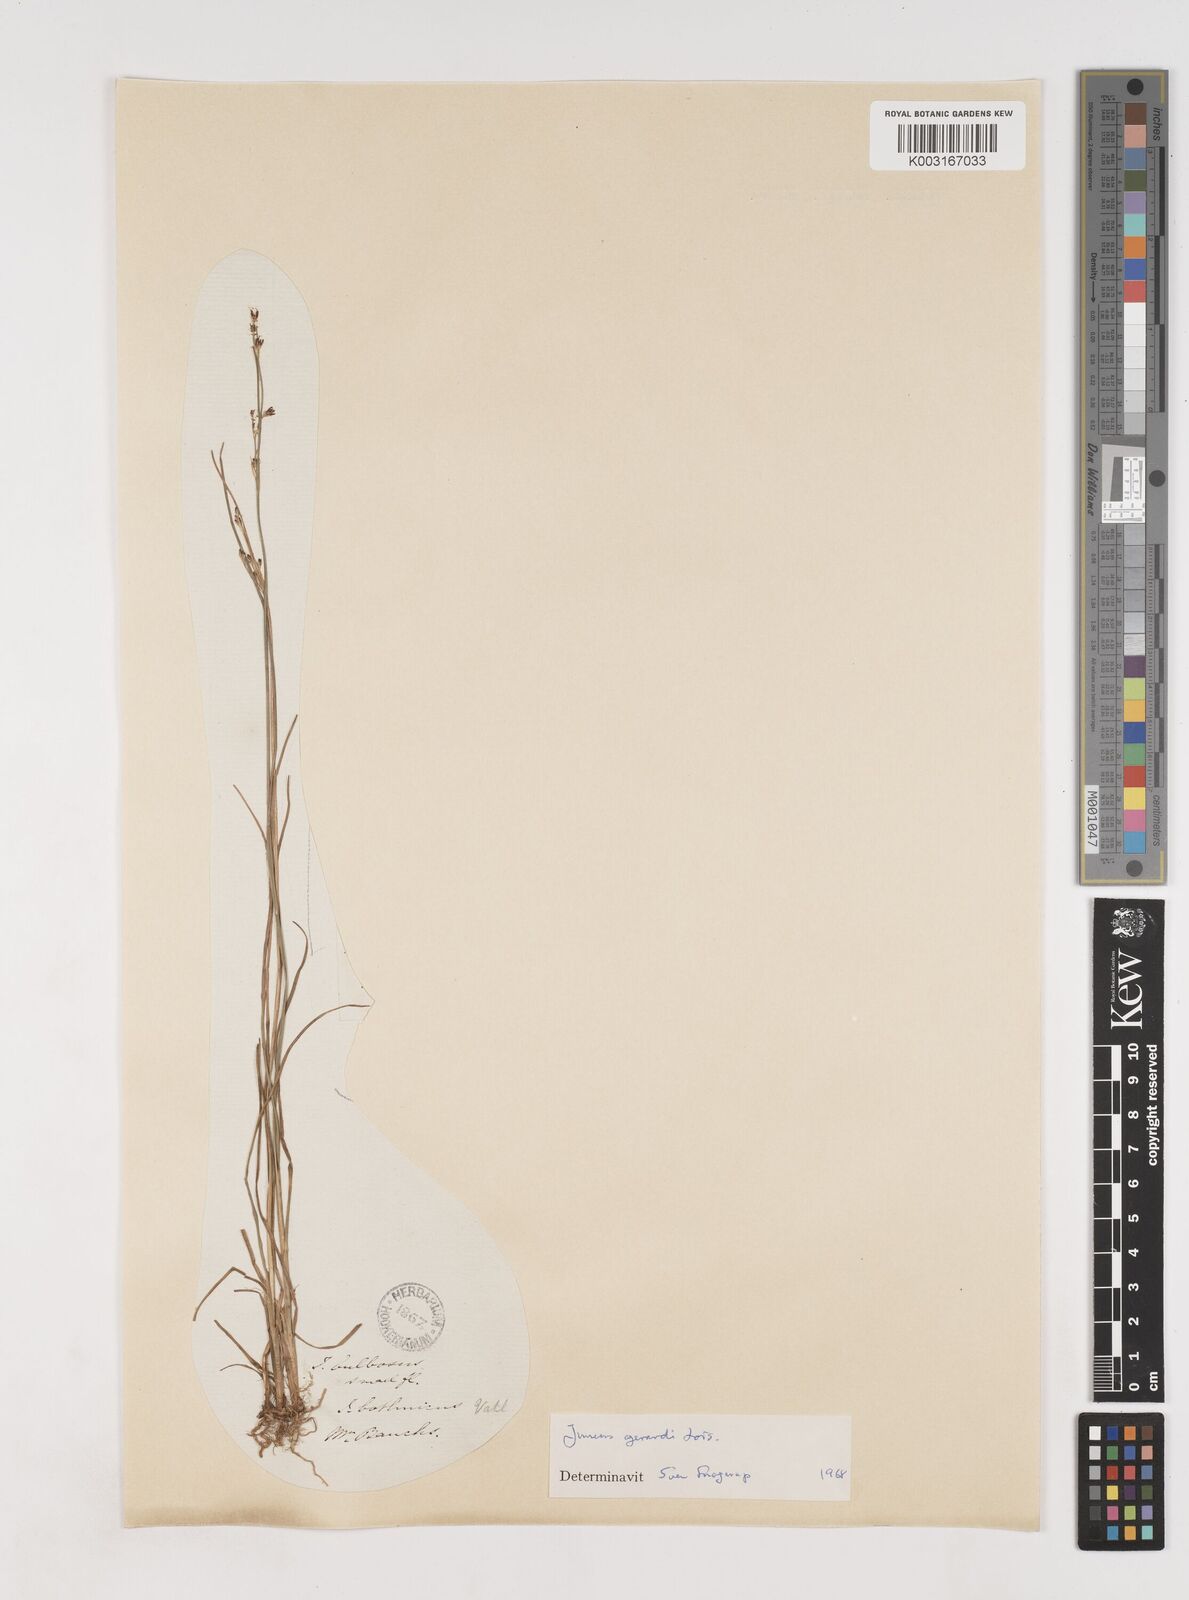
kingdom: Plantae
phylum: Tracheophyta
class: Liliopsida
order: Poales
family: Juncaceae
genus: Juncus
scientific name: Juncus gerardi
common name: Saltmarsh rush
